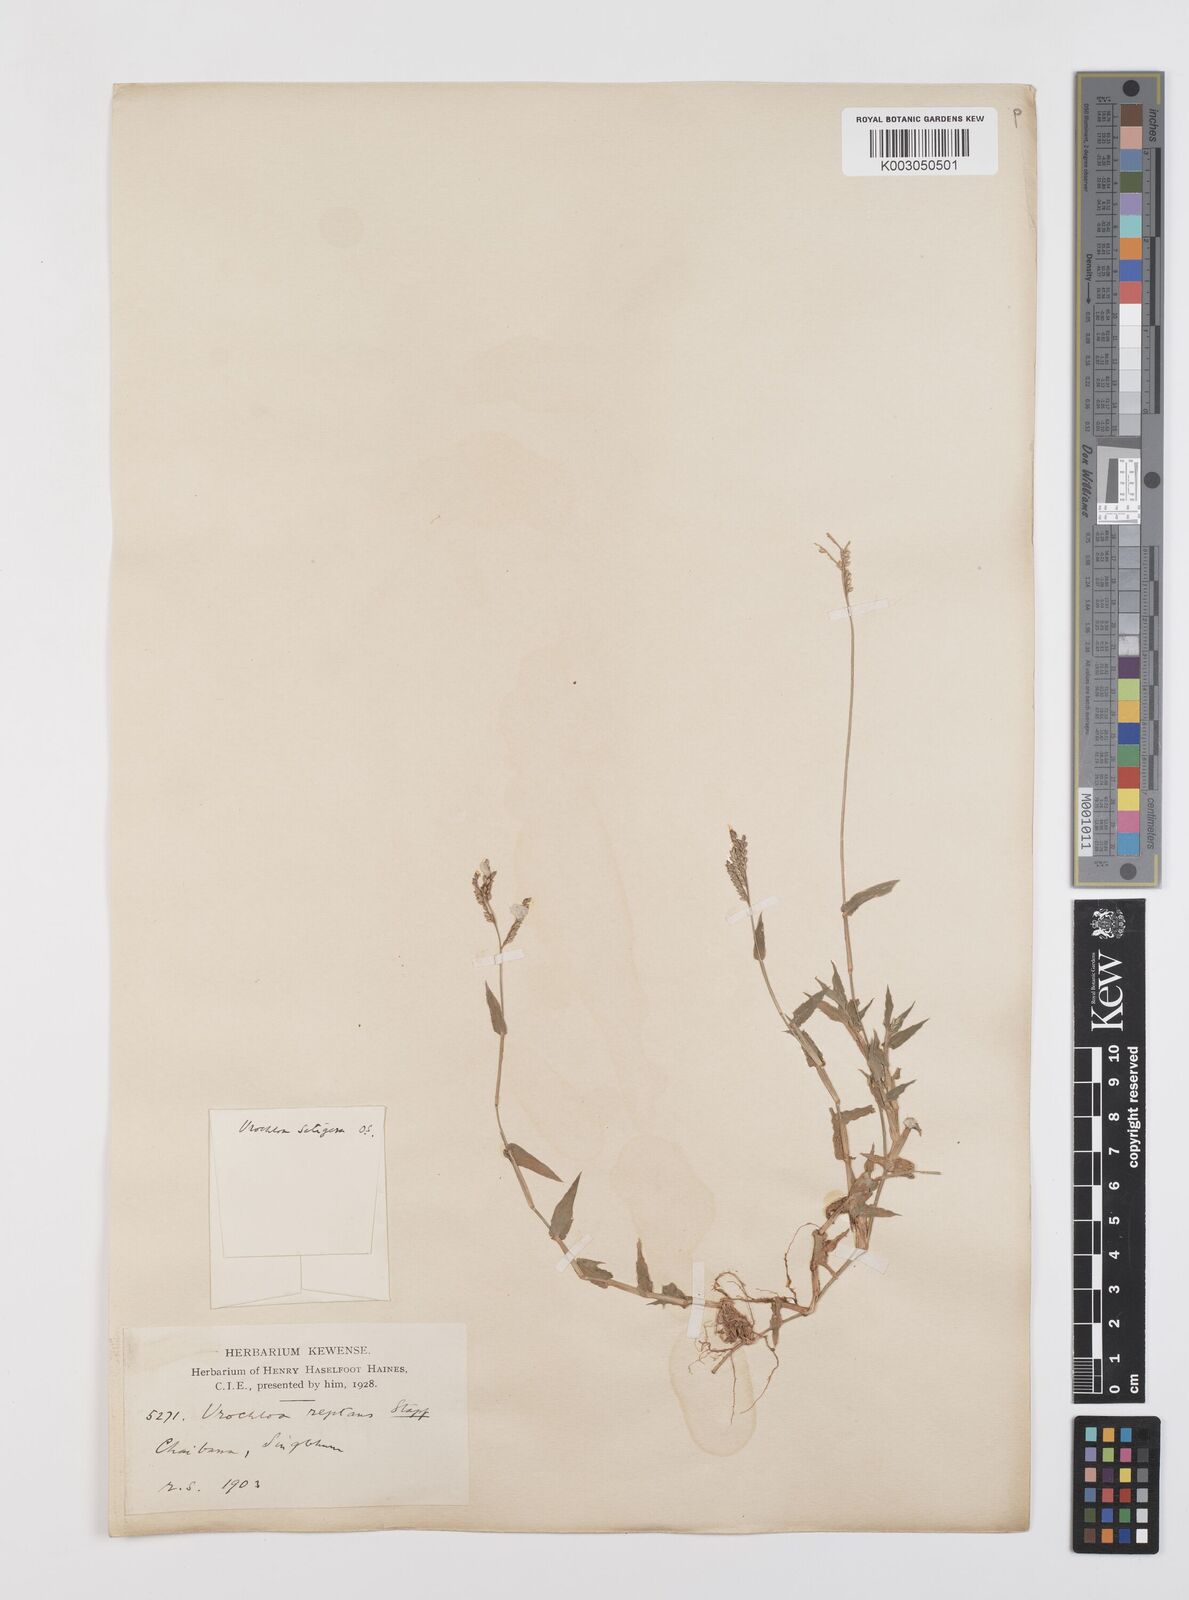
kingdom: Plantae
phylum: Tracheophyta
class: Liliopsida
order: Poales
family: Poaceae
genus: Urochloa
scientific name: Urochloa reptans
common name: Sprawling signalgrass
